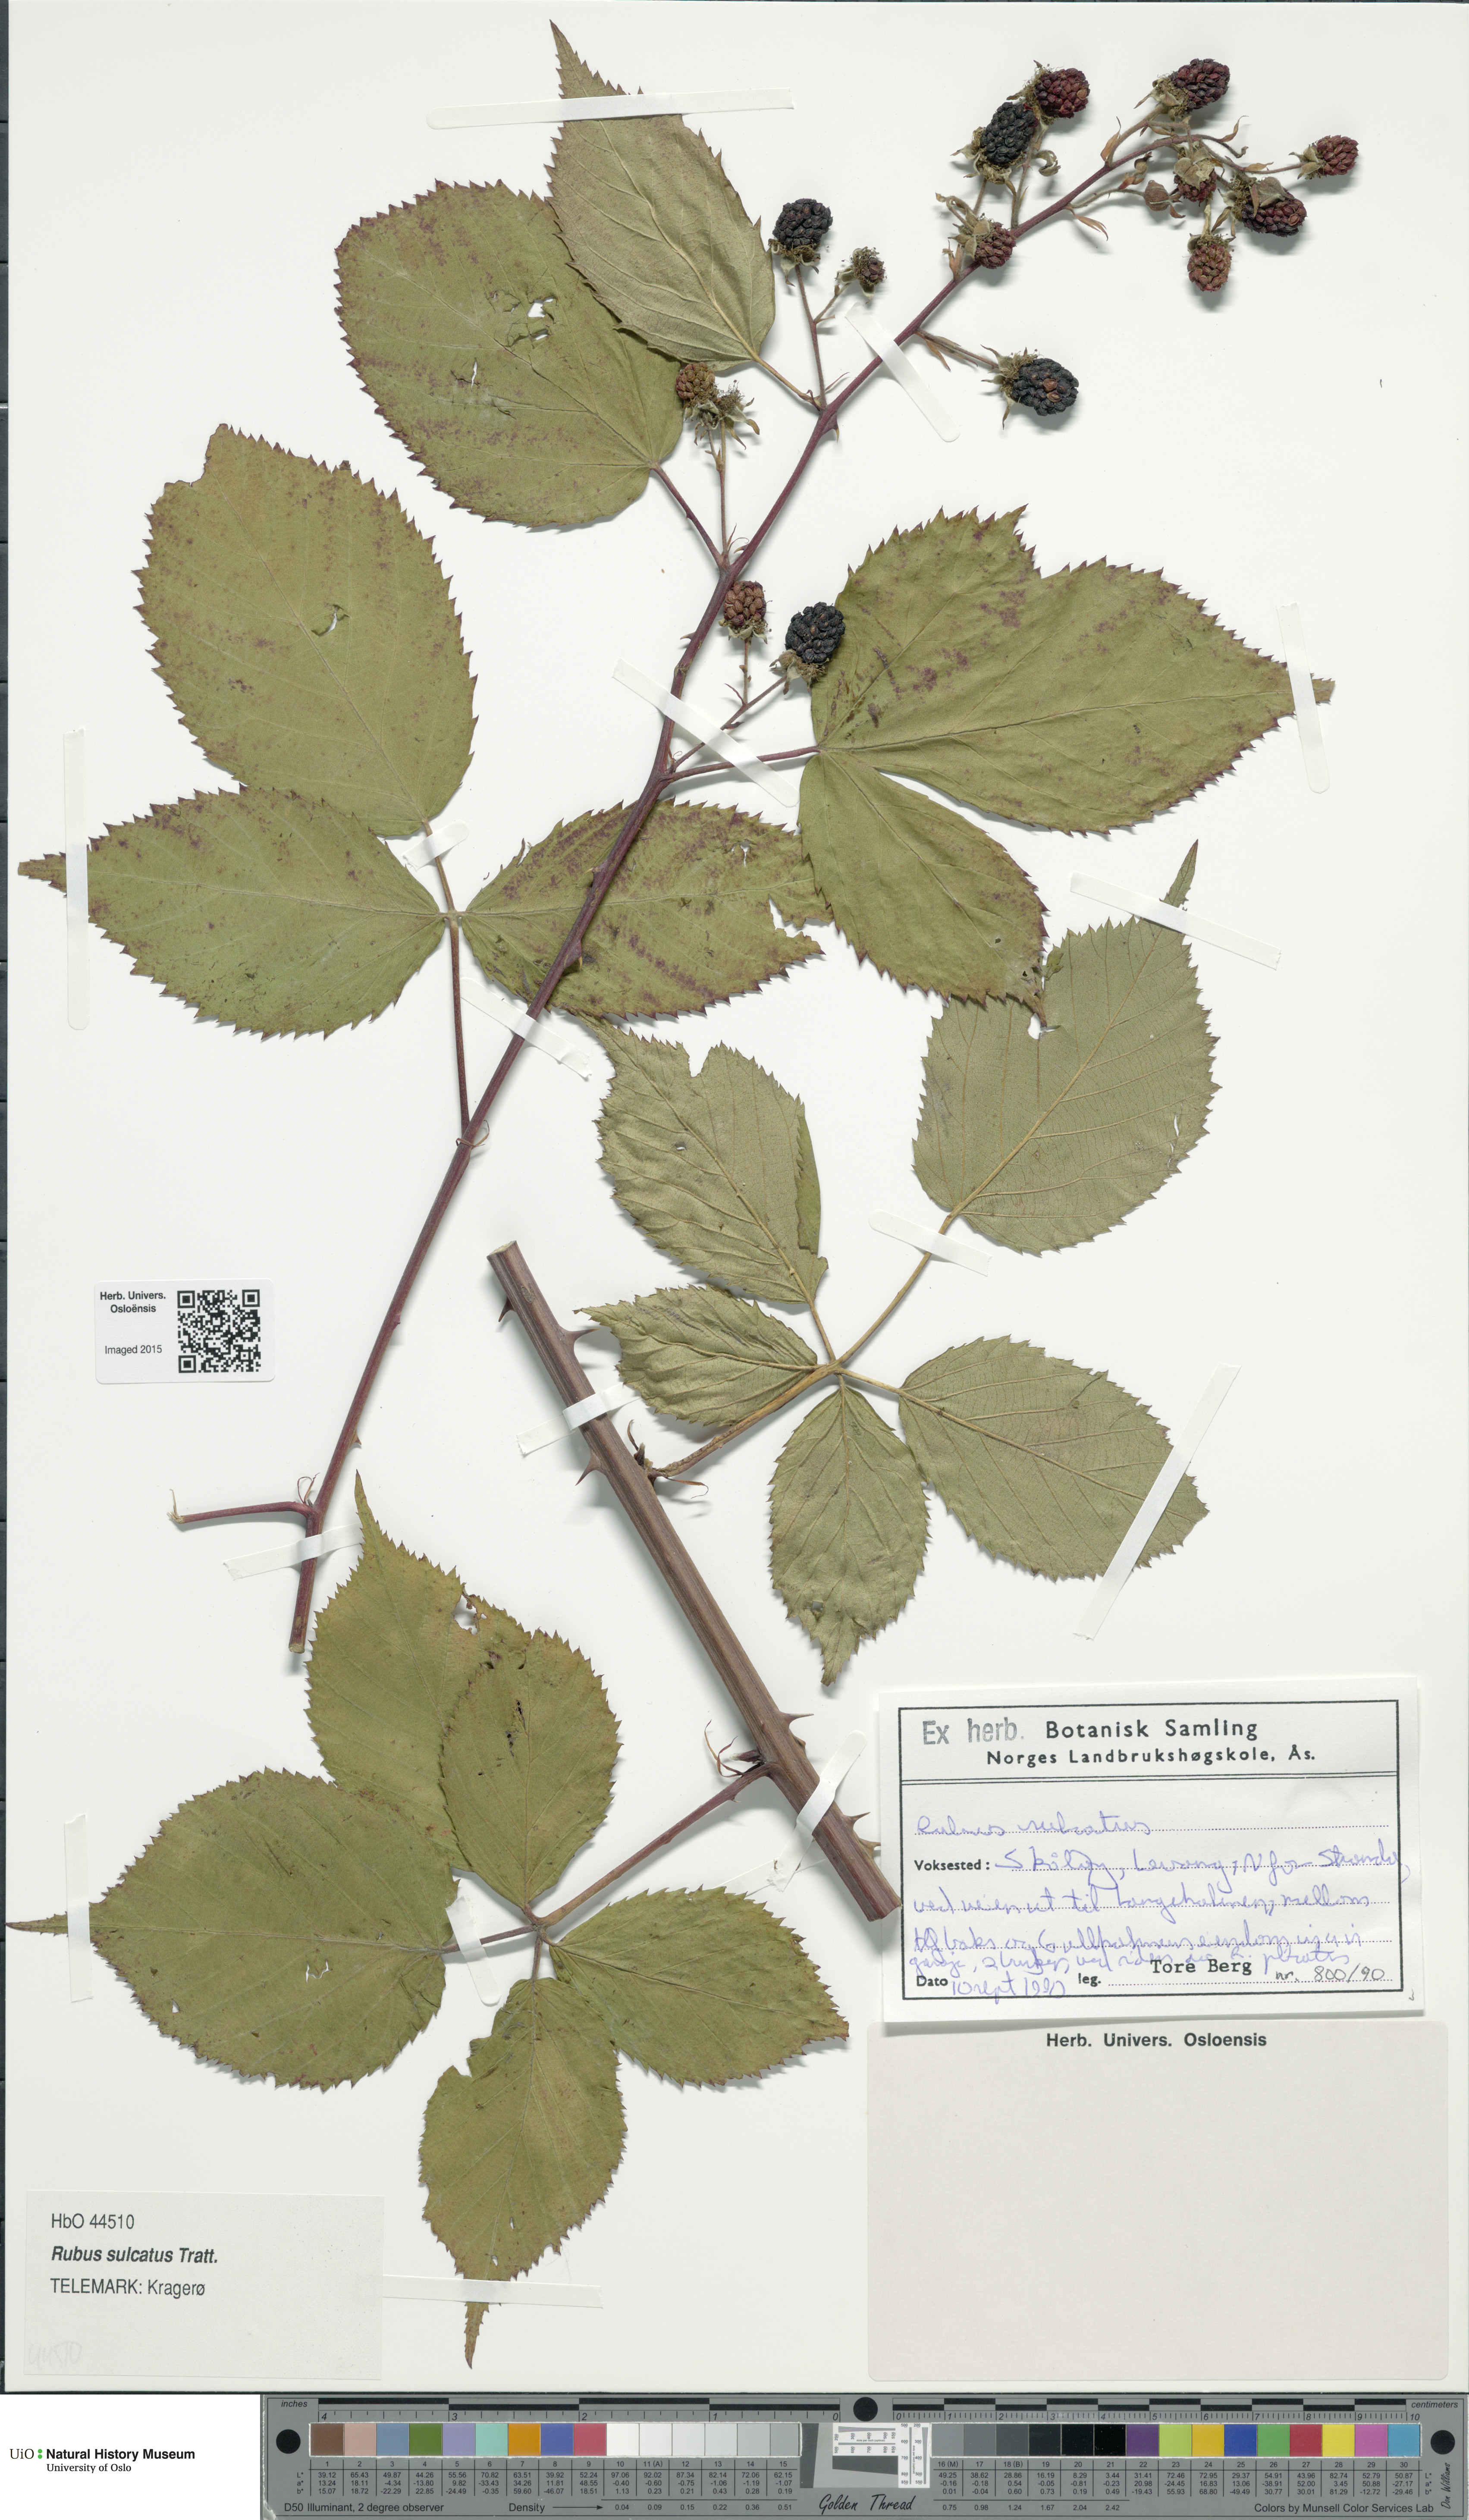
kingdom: Plantae
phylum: Tracheophyta
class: Magnoliopsida
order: Rosales
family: Rosaceae
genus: Rubus
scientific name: Rubus sulcatus
